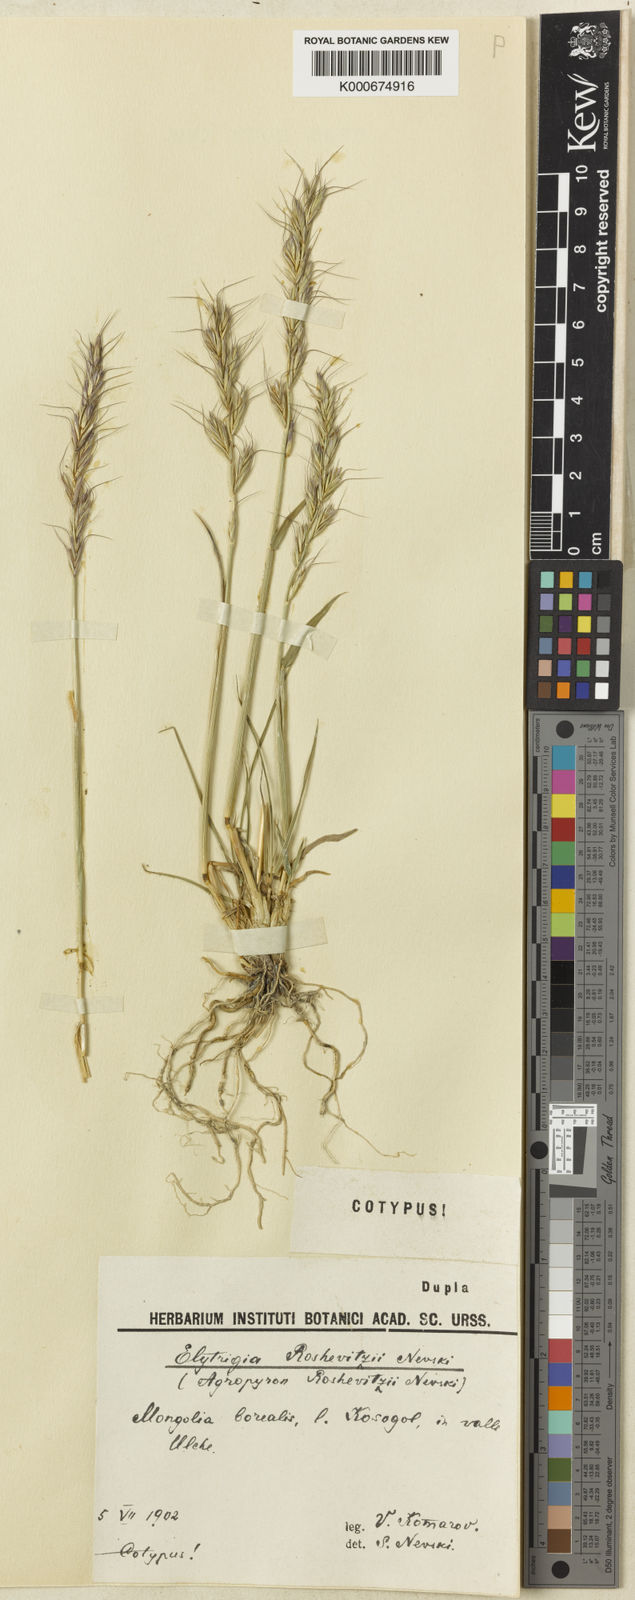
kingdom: Plantae
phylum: Tracheophyta
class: Liliopsida
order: Poales
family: Poaceae
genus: Leymus
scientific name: Leymus salina
